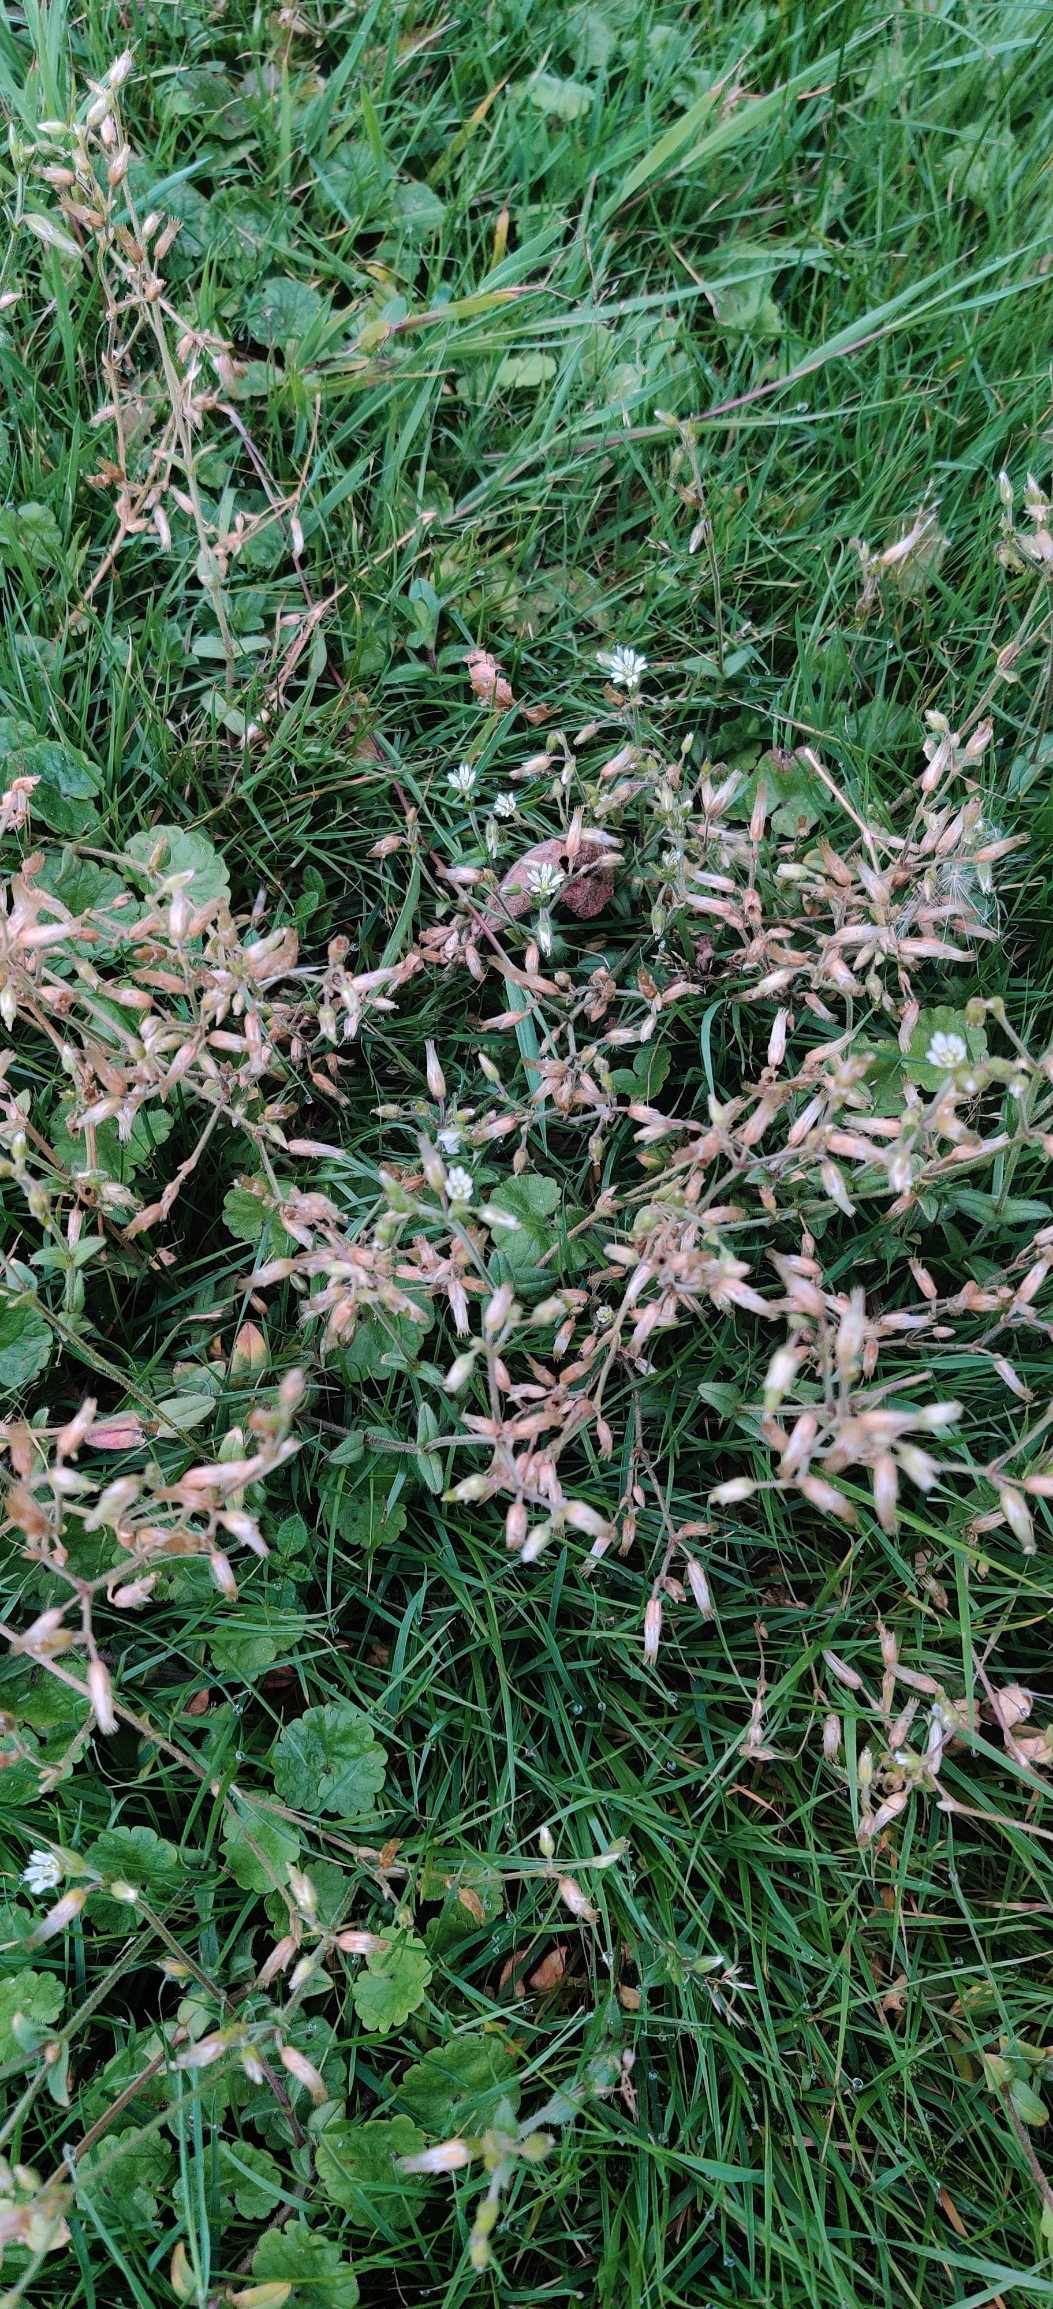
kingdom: Plantae
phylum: Tracheophyta
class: Magnoliopsida
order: Caryophyllales
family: Caryophyllaceae
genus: Cerastium
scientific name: Cerastium fontanum
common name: Almindelig hønsetarm
